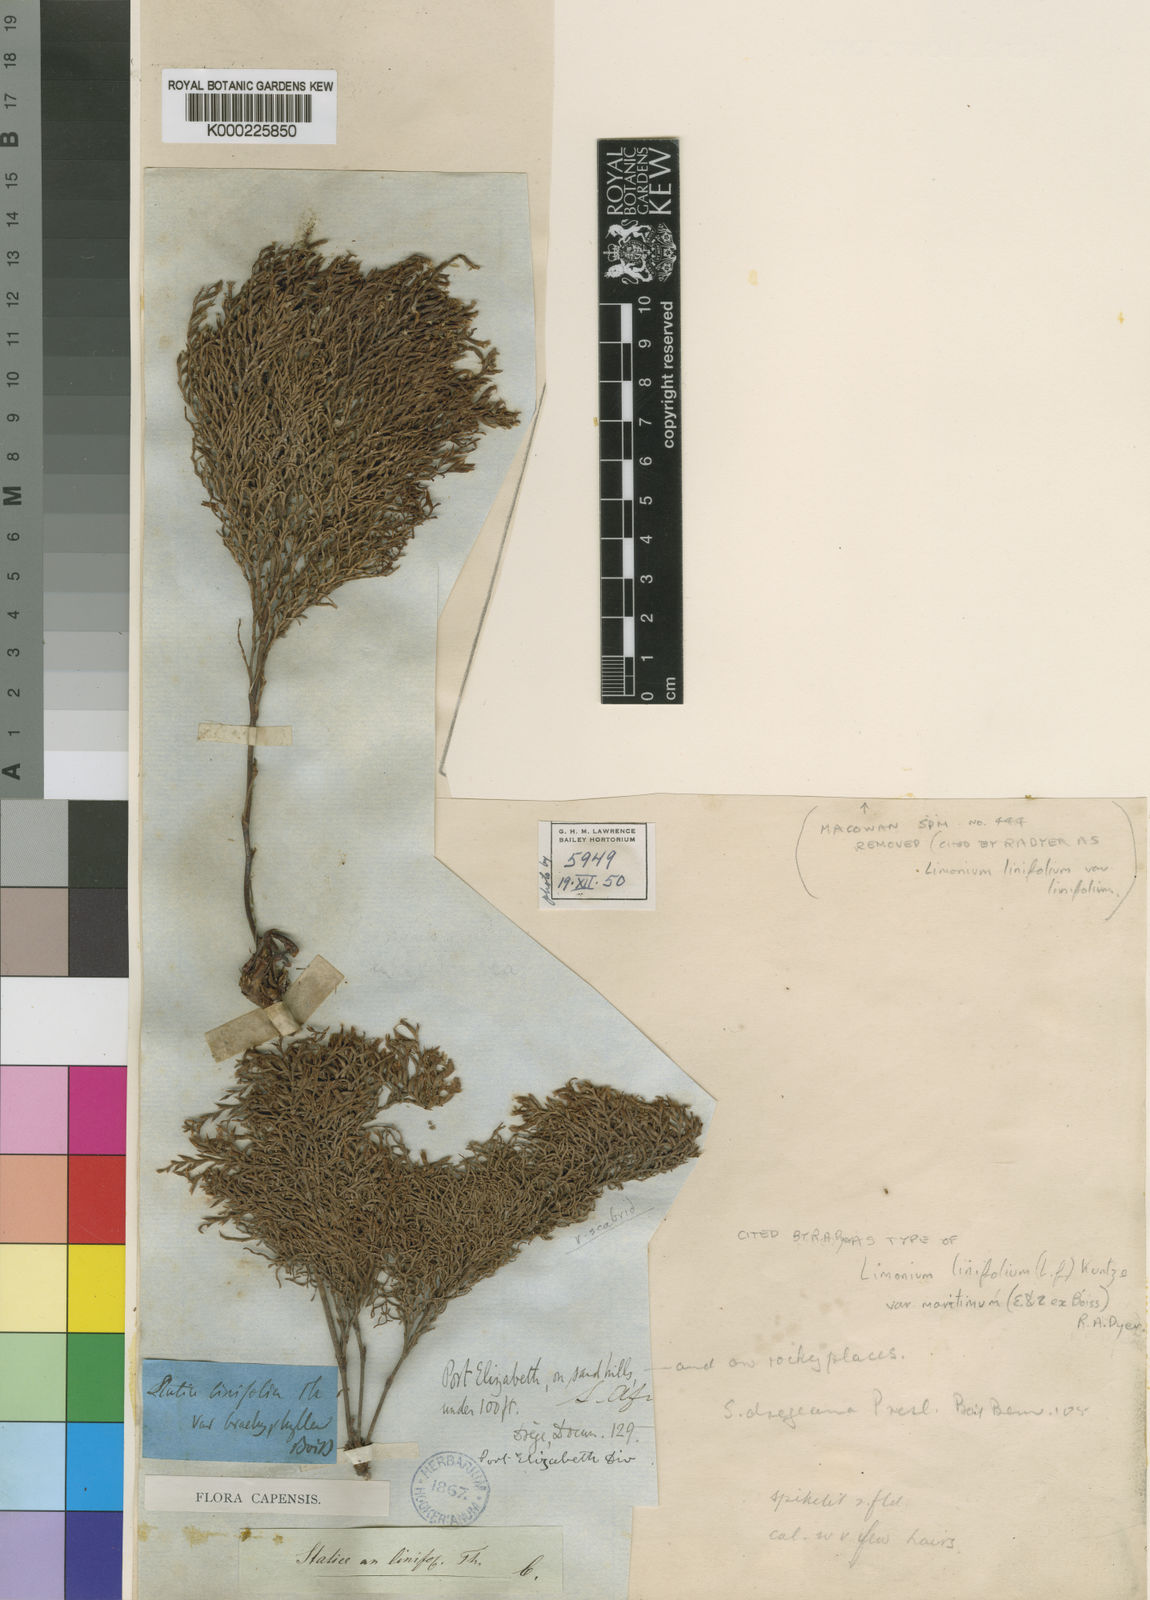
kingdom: Plantae
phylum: Tracheophyta
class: Magnoliopsida
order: Caryophyllales
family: Plumbaginaceae
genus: Limonium
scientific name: Limonium linifolium
